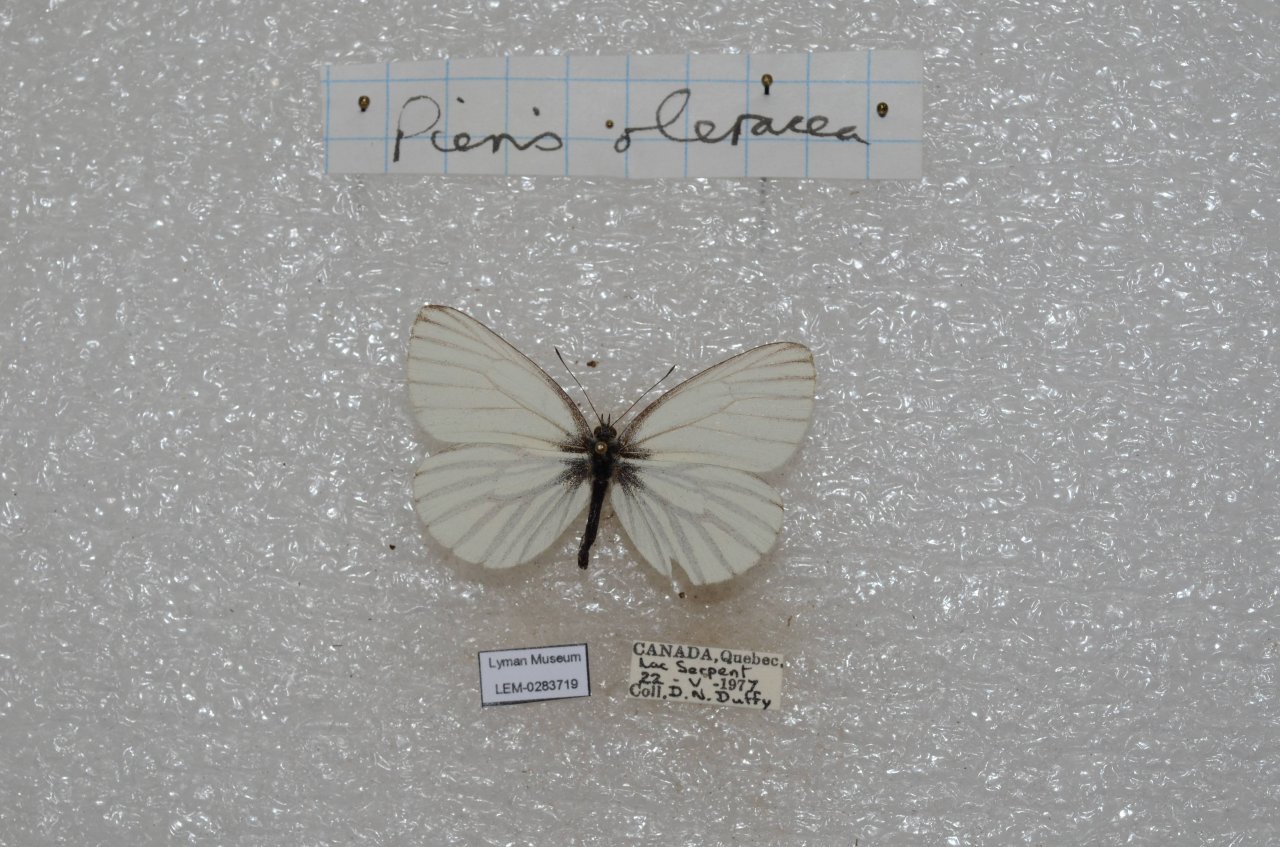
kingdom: Animalia
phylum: Arthropoda
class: Insecta
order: Lepidoptera
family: Pieridae
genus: Pieris
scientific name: Pieris oleracea
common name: Mustard White
